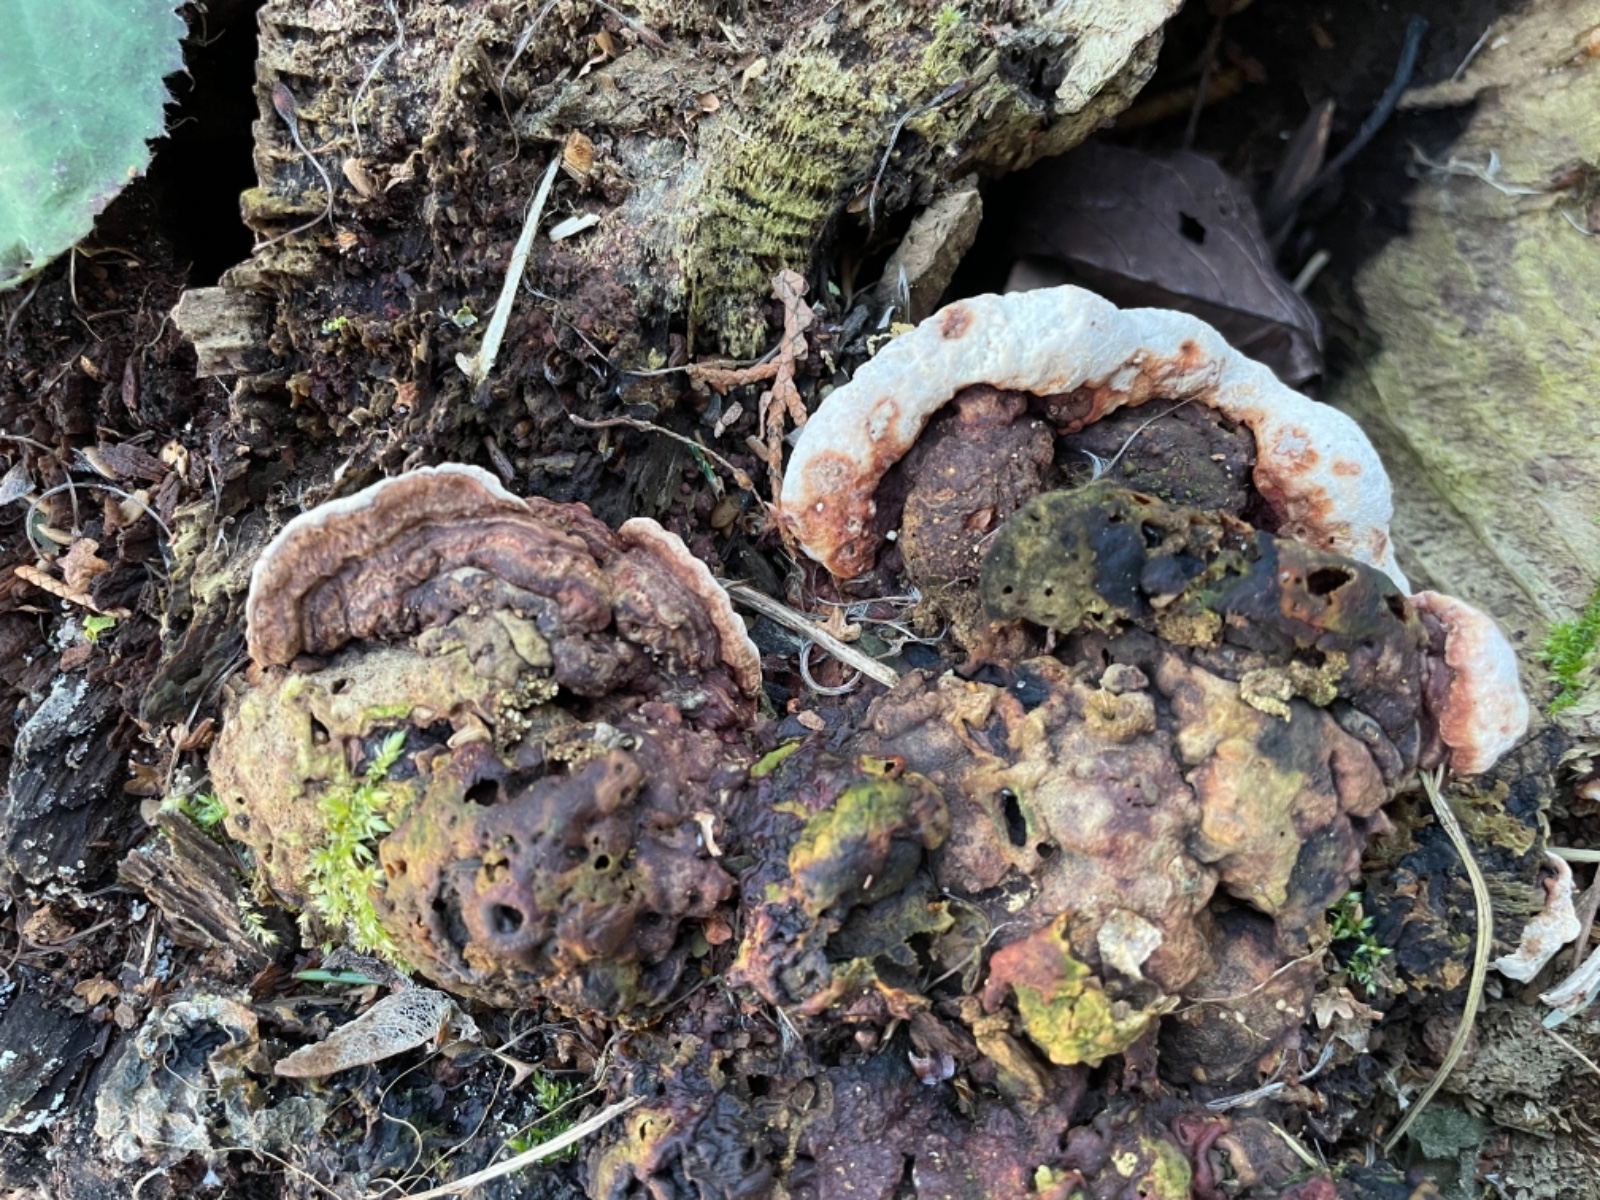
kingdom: Fungi
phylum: Basidiomycota
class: Agaricomycetes
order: Russulales
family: Bondarzewiaceae
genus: Heterobasidion
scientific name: Heterobasidion annosum
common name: almindelig rodfordærver
